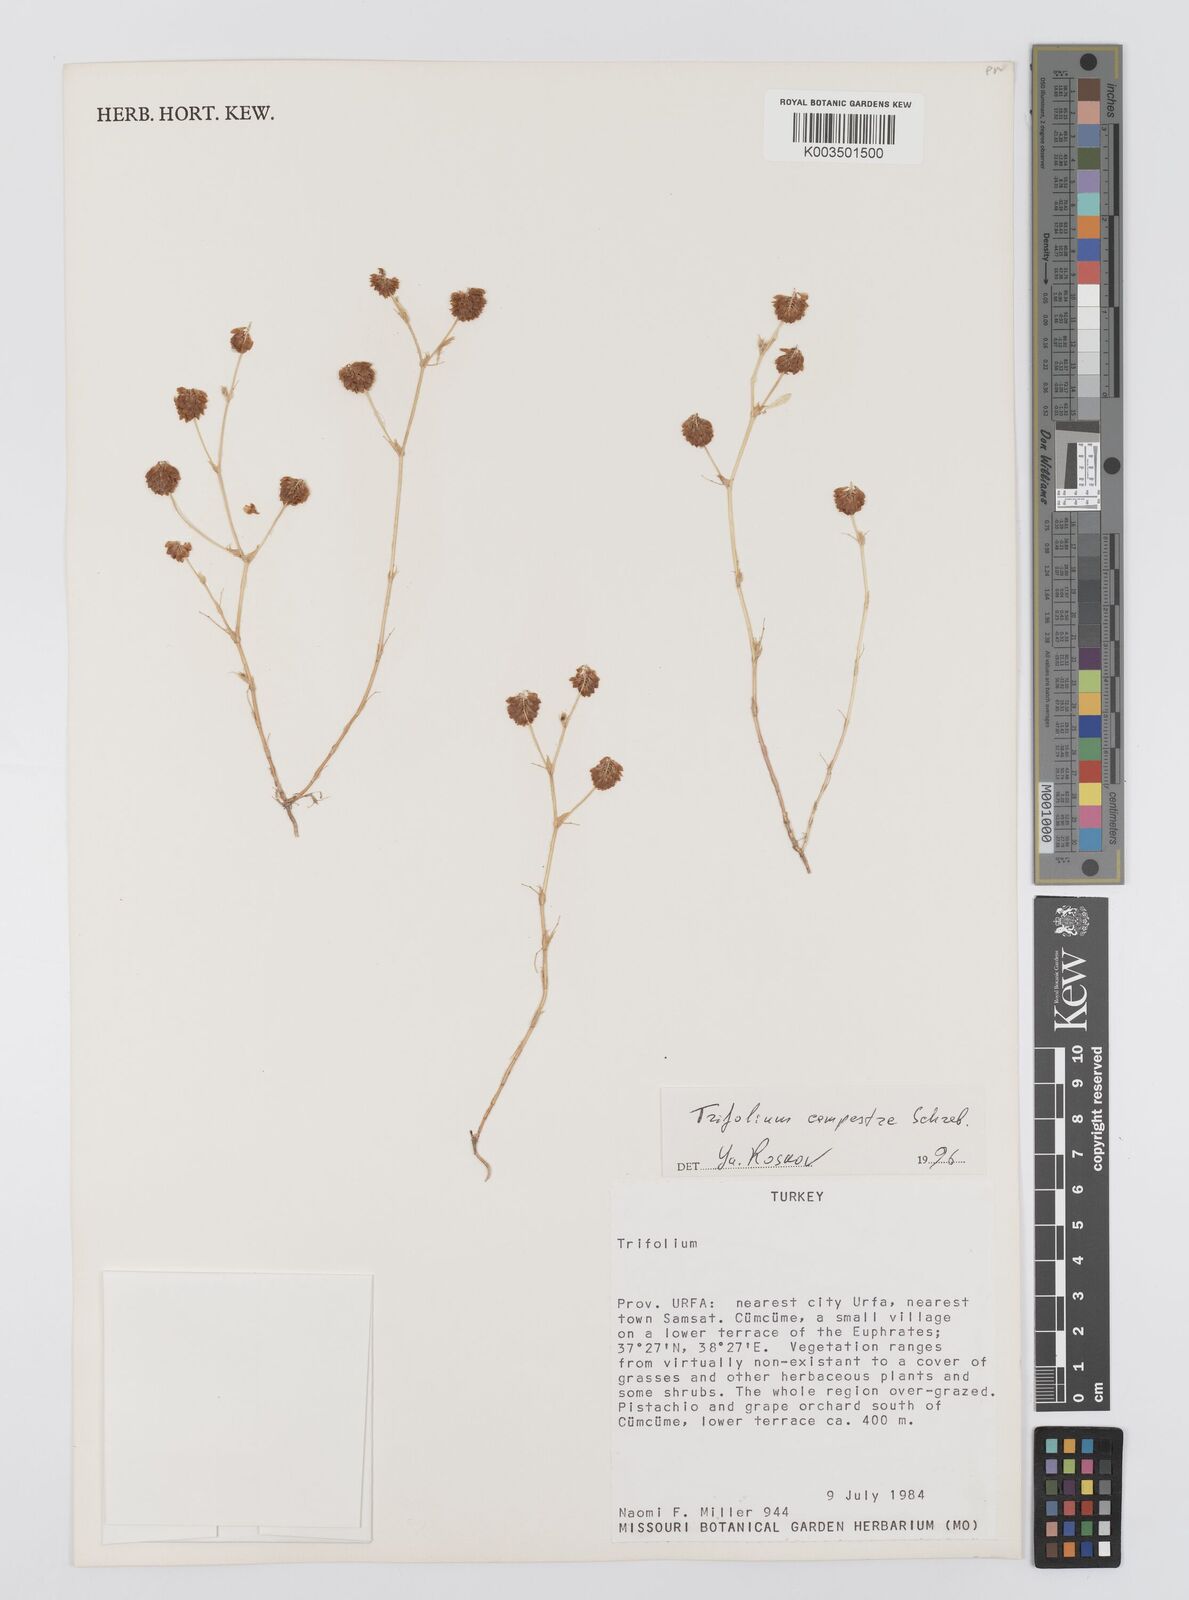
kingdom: Plantae
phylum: Tracheophyta
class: Magnoliopsida
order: Fabales
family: Fabaceae
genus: Trifolium
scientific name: Trifolium campestre
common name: Field clover
